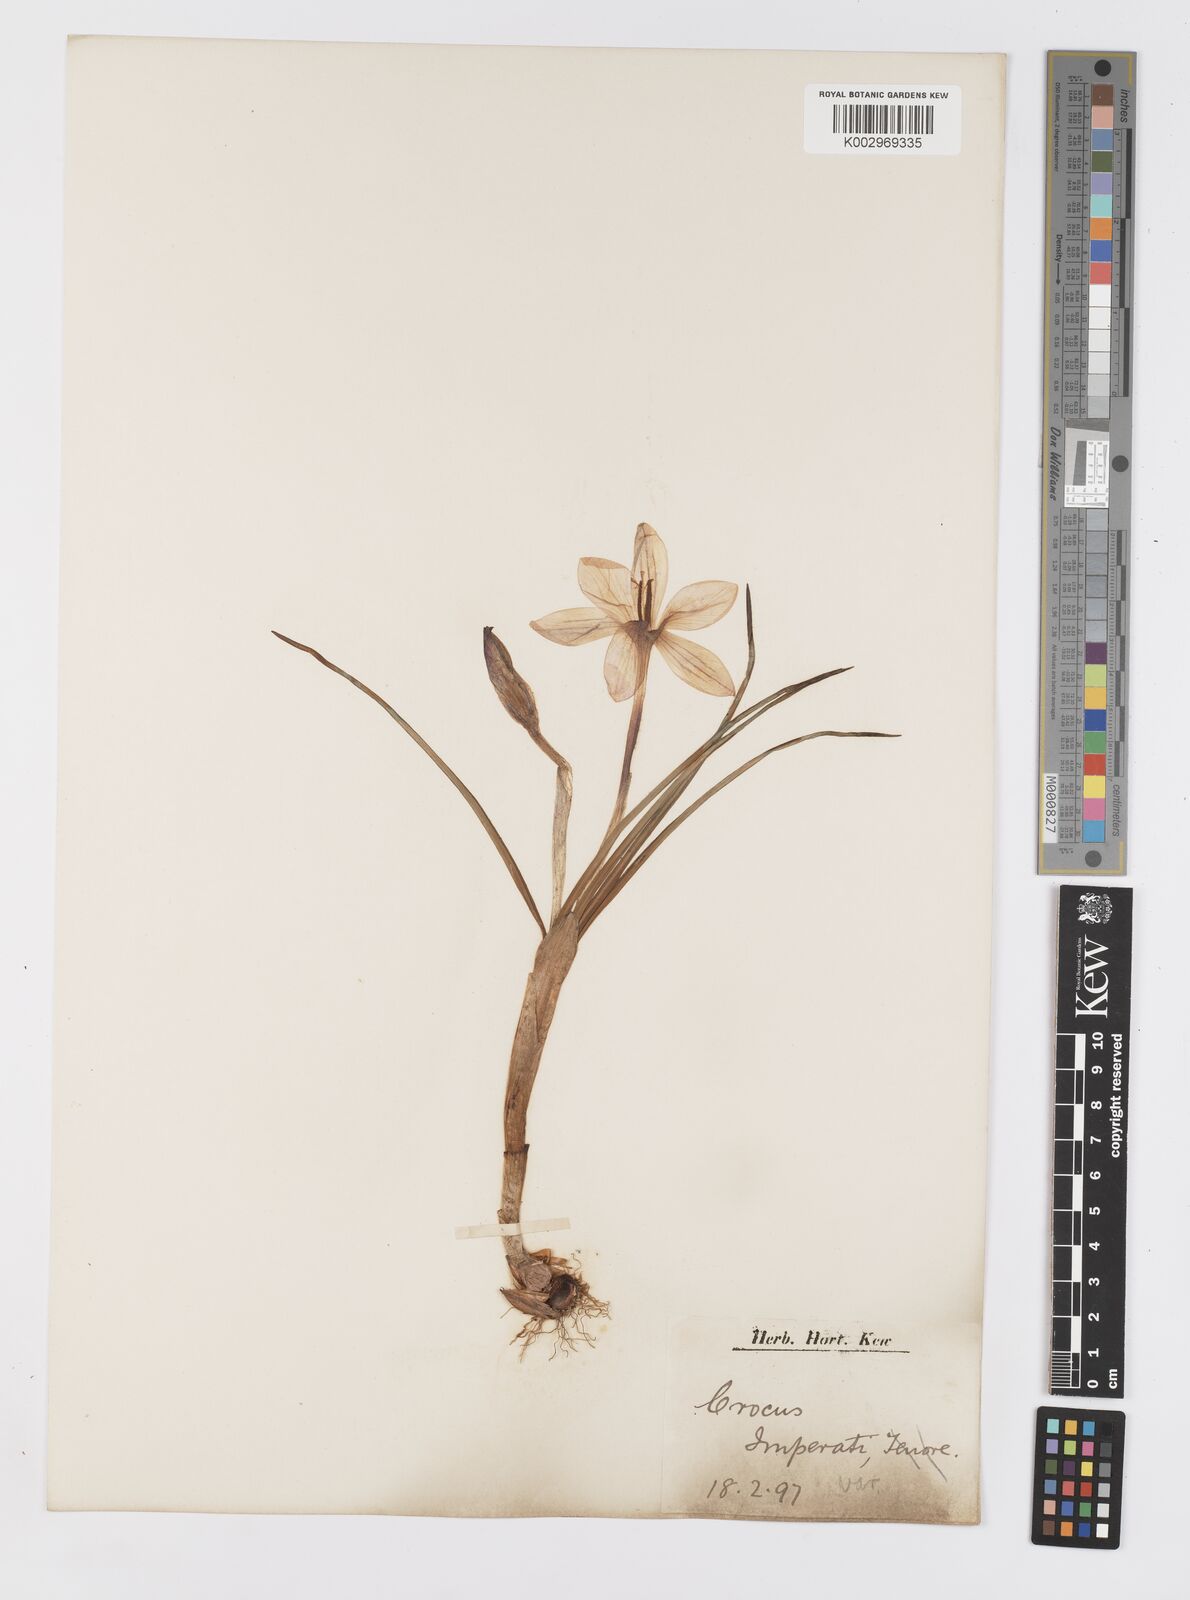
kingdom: Plantae
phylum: Tracheophyta
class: Liliopsida
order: Asparagales
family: Iridaceae
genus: Crocus
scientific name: Crocus imperati
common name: Early crocus
